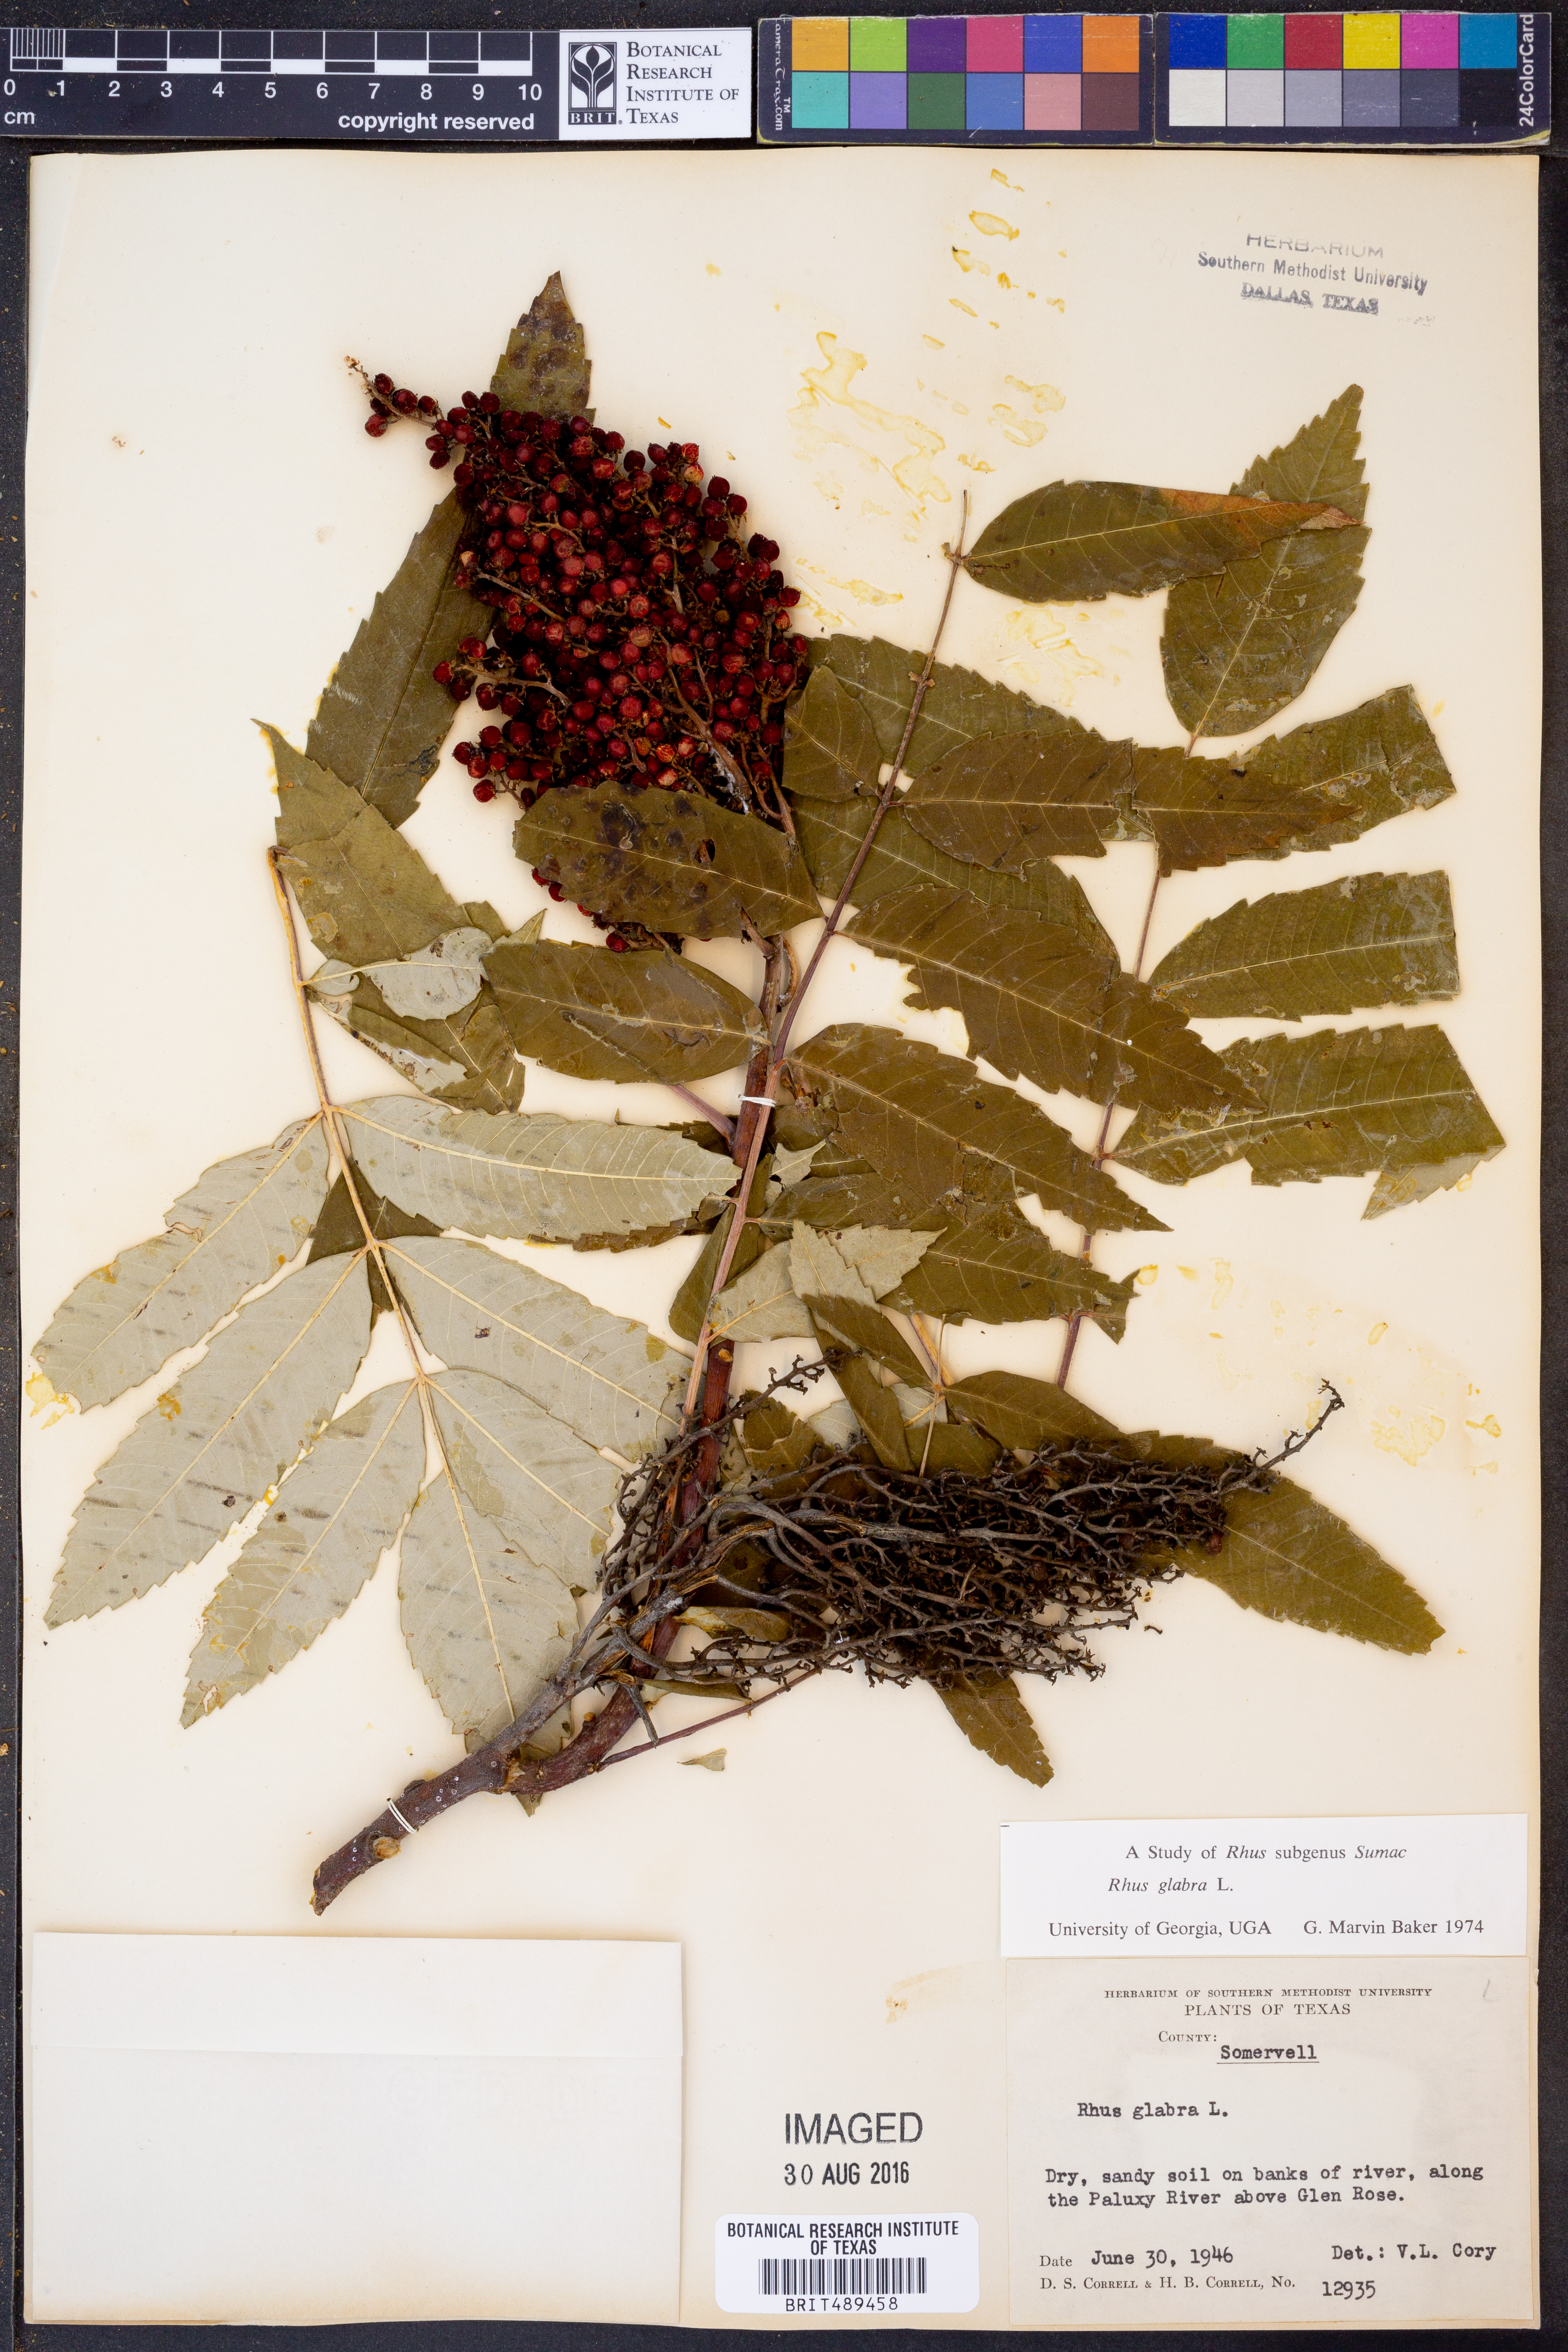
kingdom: Plantae
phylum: Tracheophyta
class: Magnoliopsida
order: Sapindales
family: Anacardiaceae
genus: Rhus
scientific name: Rhus glabra
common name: Scarlet sumac
